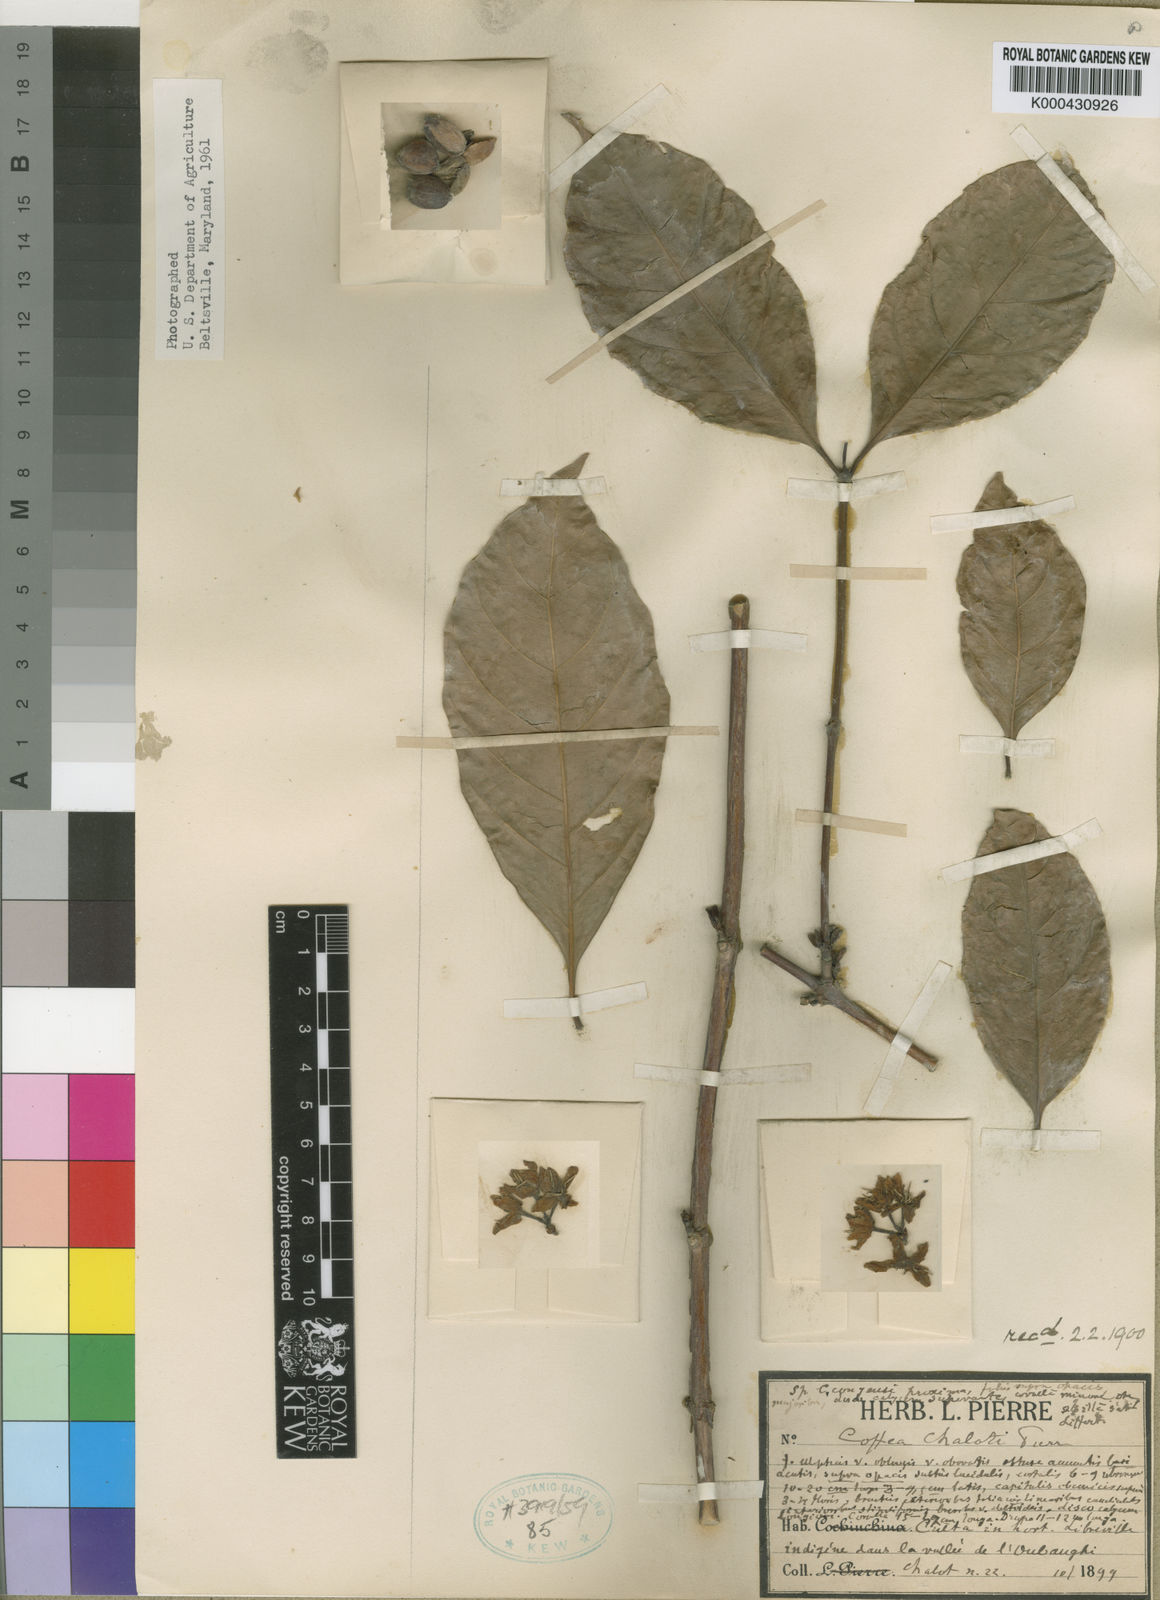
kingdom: Plantae
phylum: Tracheophyta
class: Magnoliopsida
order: Gentianales
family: Rubiaceae
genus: Coffea
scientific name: Coffea congensis
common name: Congo coffee
